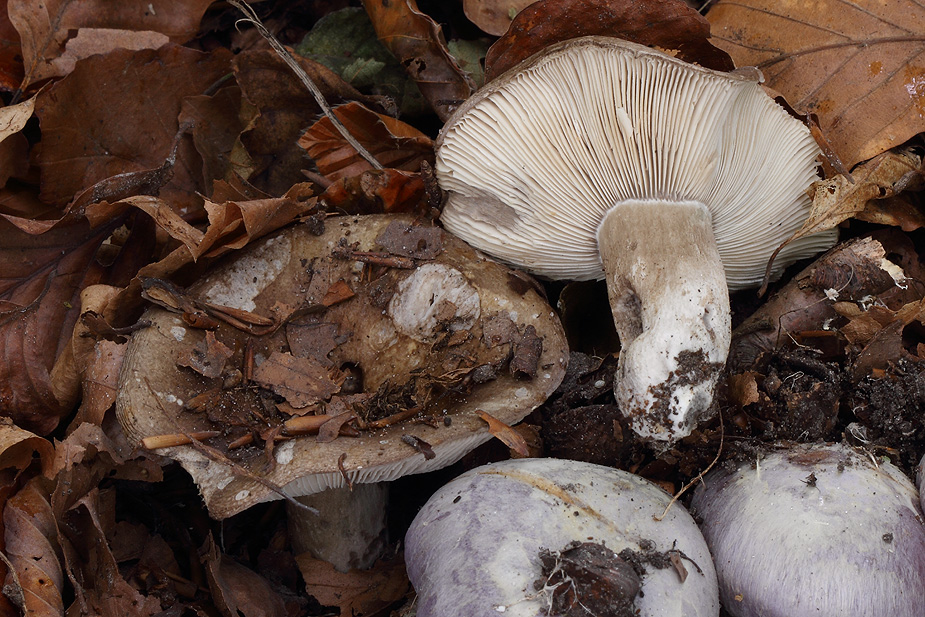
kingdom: Fungi
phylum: Basidiomycota
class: Agaricomycetes
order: Russulales
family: Russulaceae
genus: Russula
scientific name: Russula densifolia
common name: tætbladet skørhat
